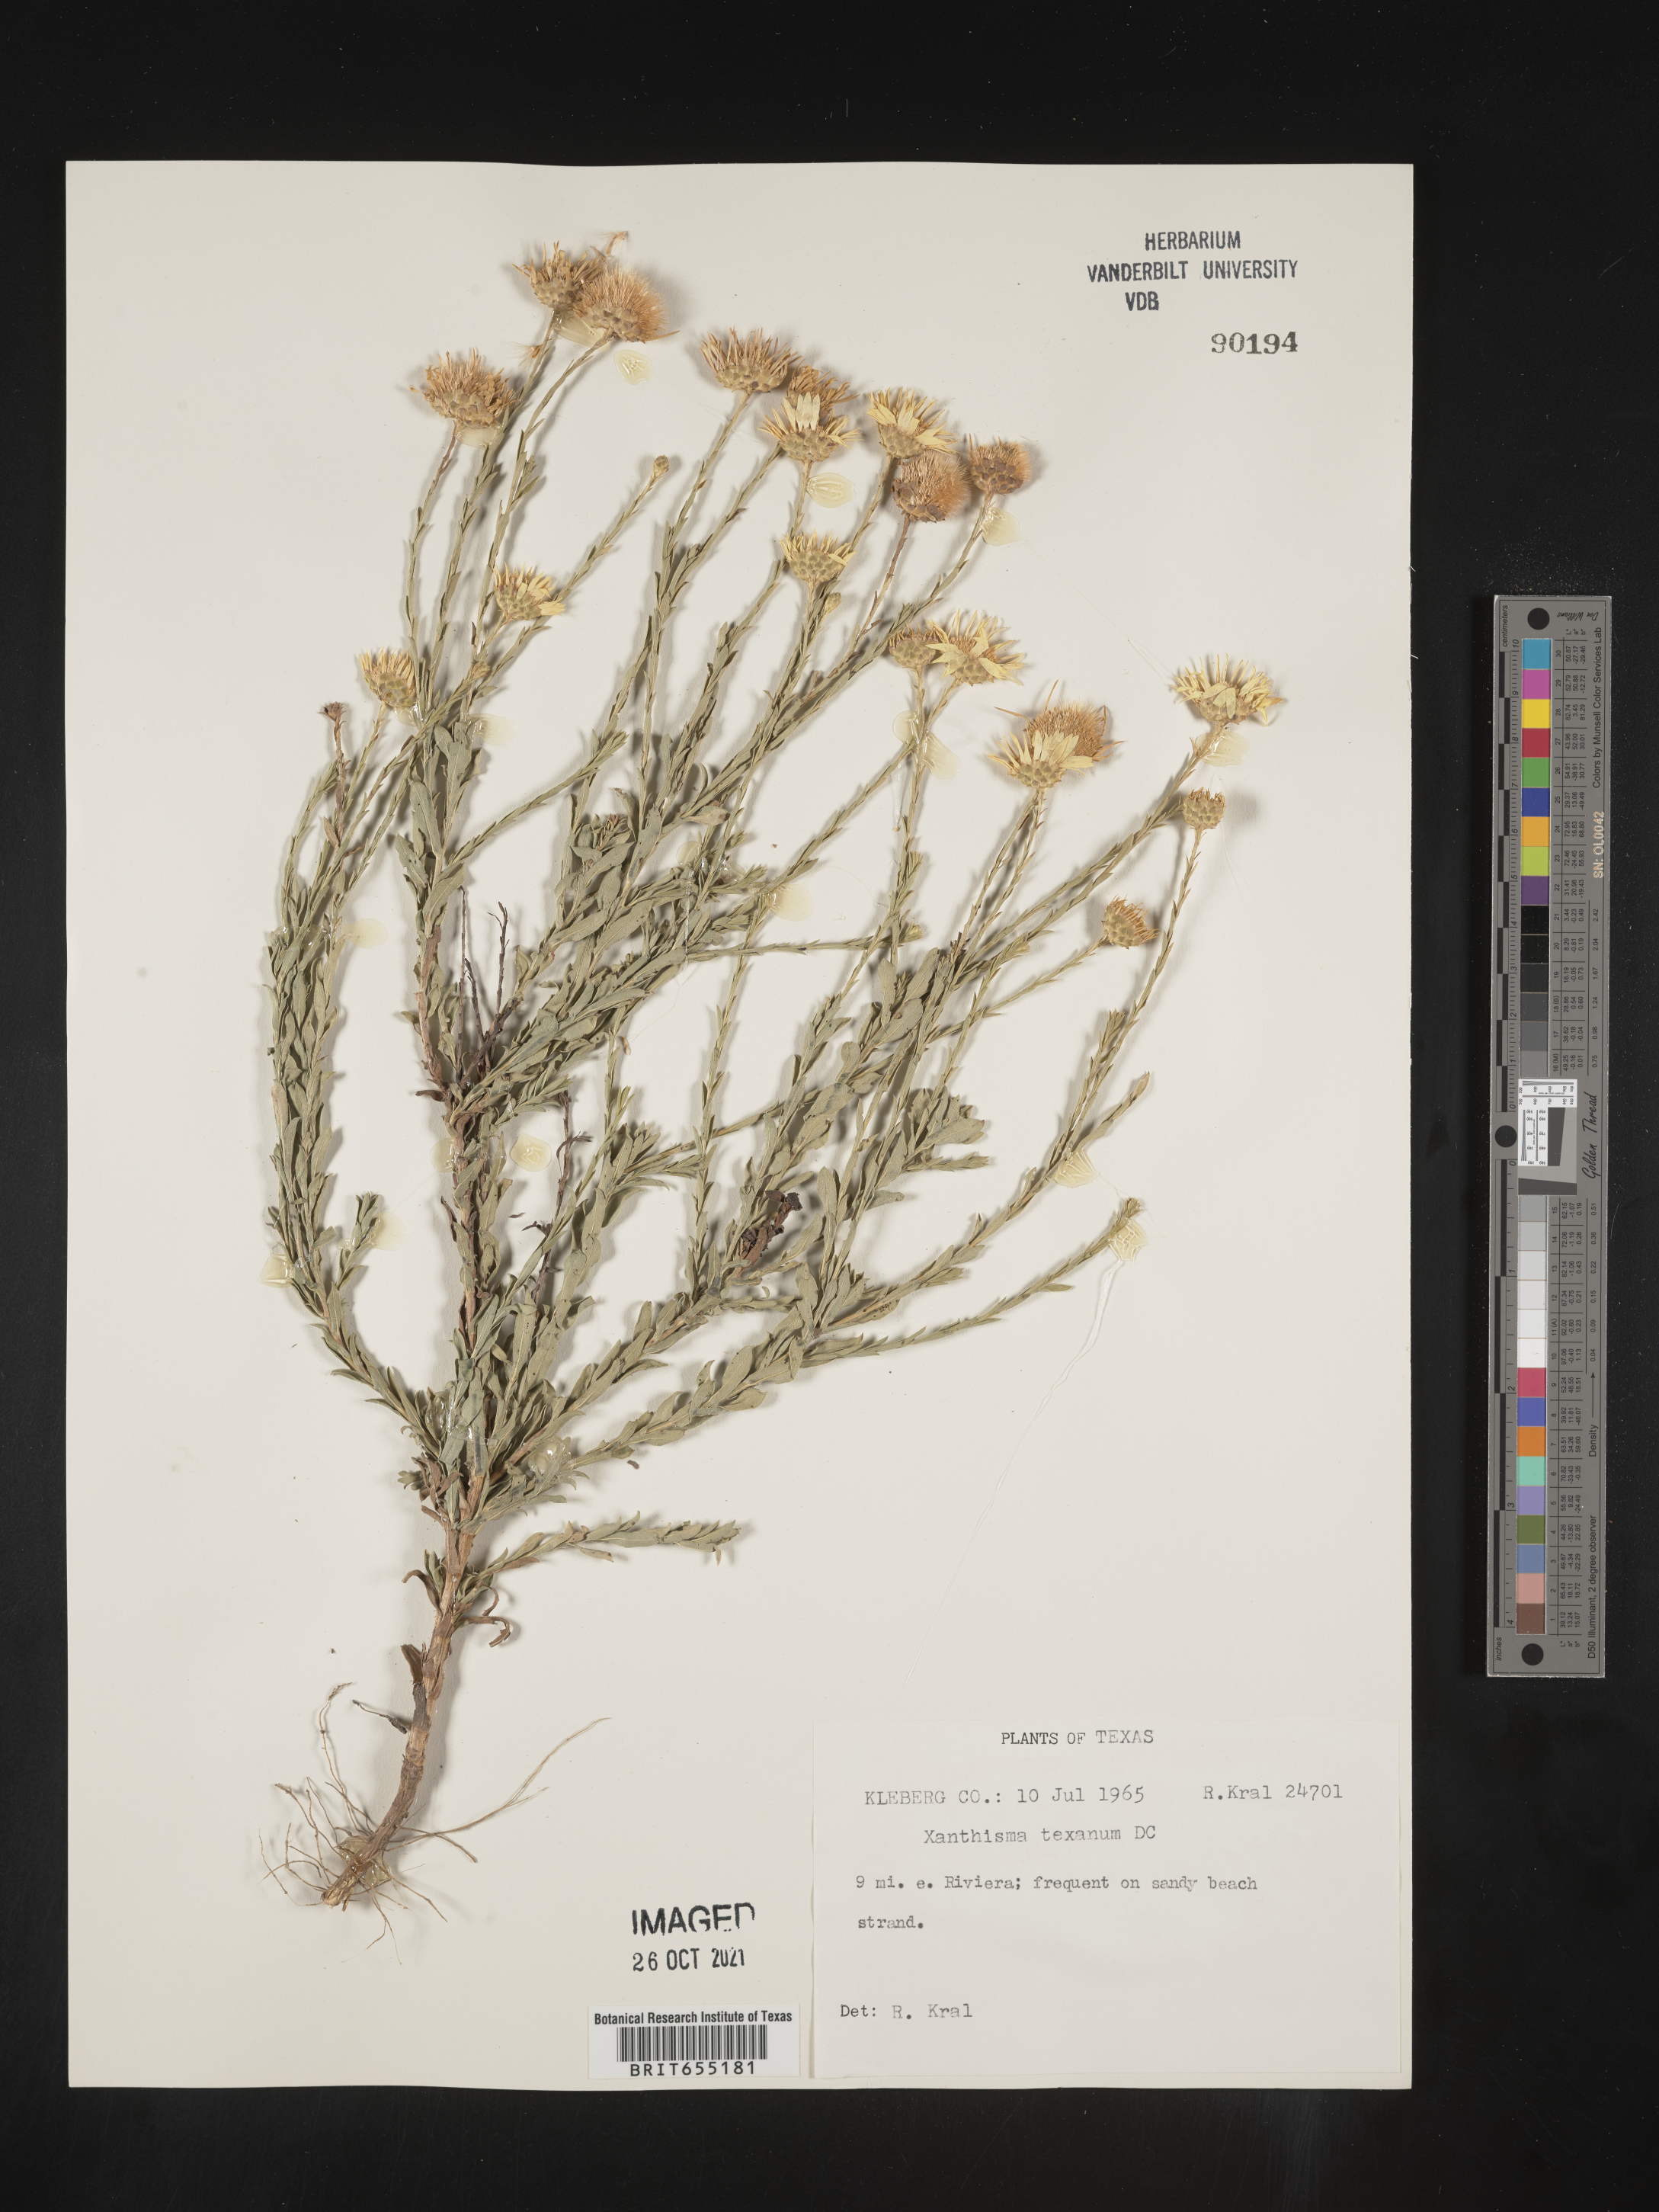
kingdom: Plantae
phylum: Tracheophyta
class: Magnoliopsida
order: Asterales
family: Asteraceae
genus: Xanthisma
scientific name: Xanthisma texanum
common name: Texas sleepy daisy
